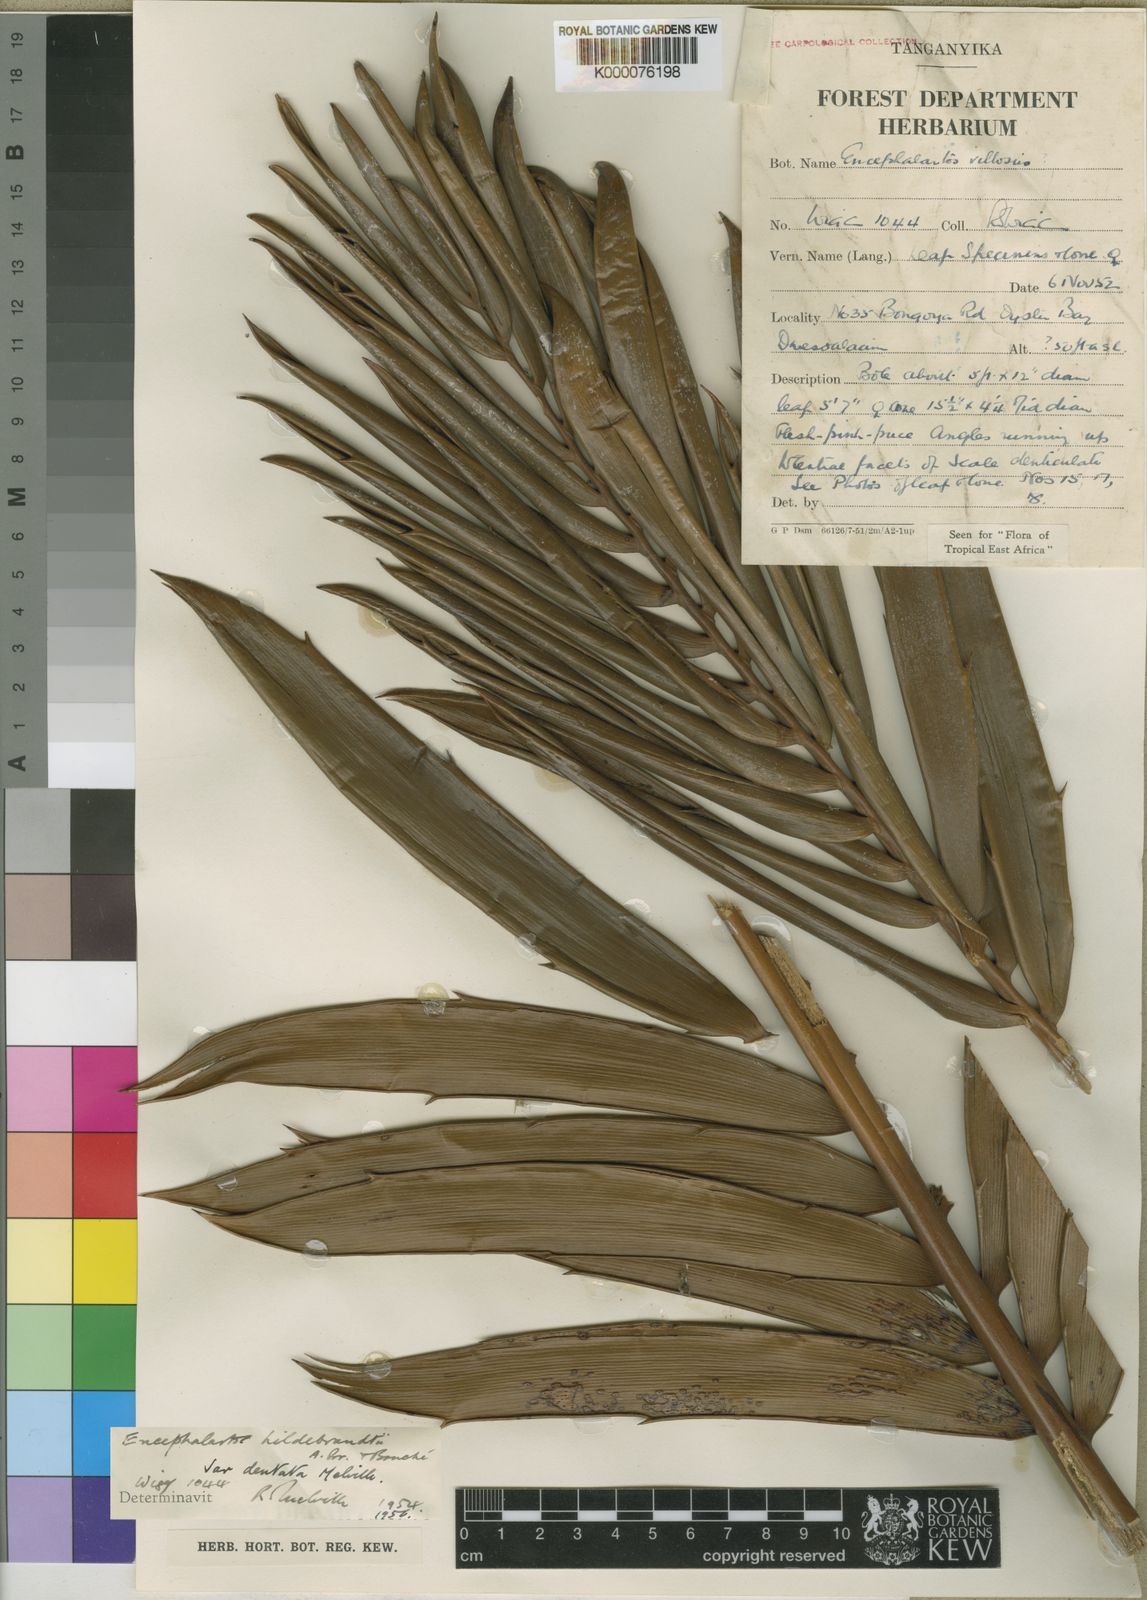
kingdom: Plantae
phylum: Tracheophyta
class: Cycadopsida
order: Cycadales
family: Zamiaceae
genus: Encephalartos
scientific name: Encephalartos
